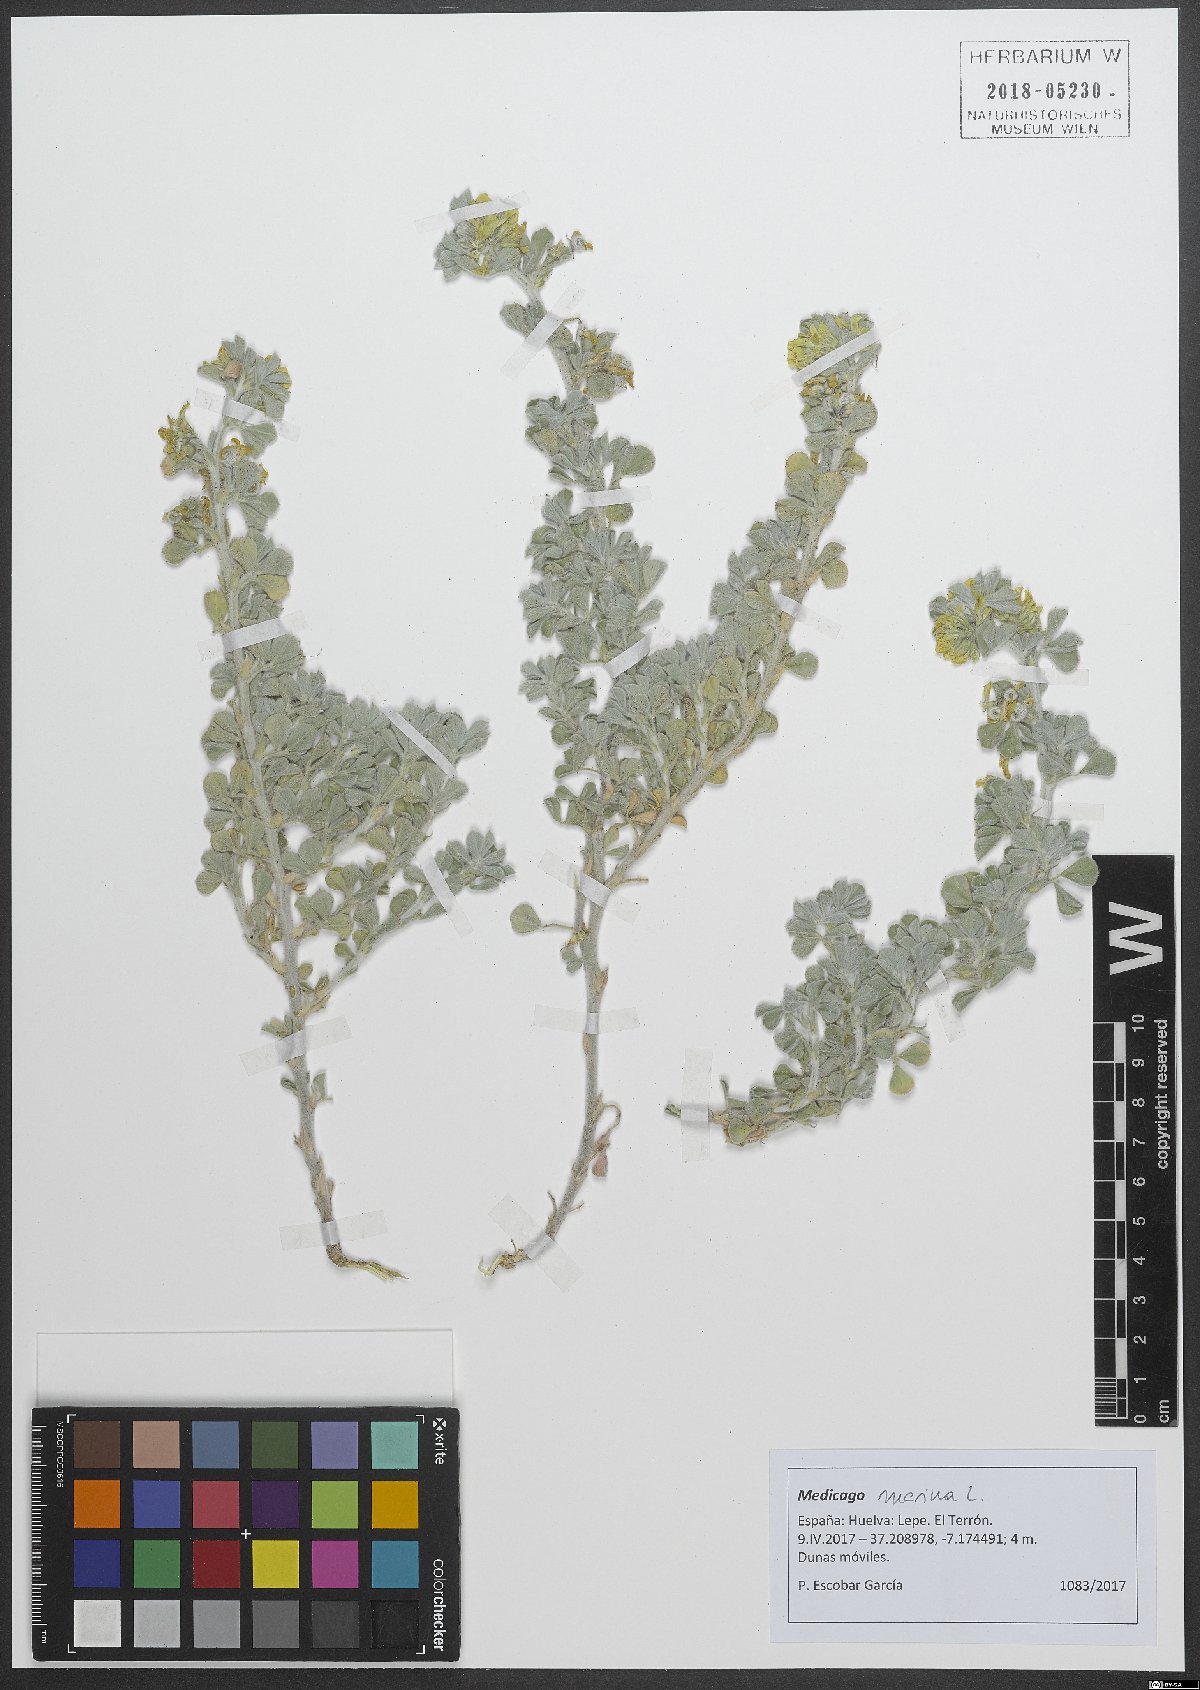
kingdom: Plantae
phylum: Tracheophyta
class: Magnoliopsida
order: Fabales
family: Fabaceae
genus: Medicago
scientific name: Medicago marina
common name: Sea medick
